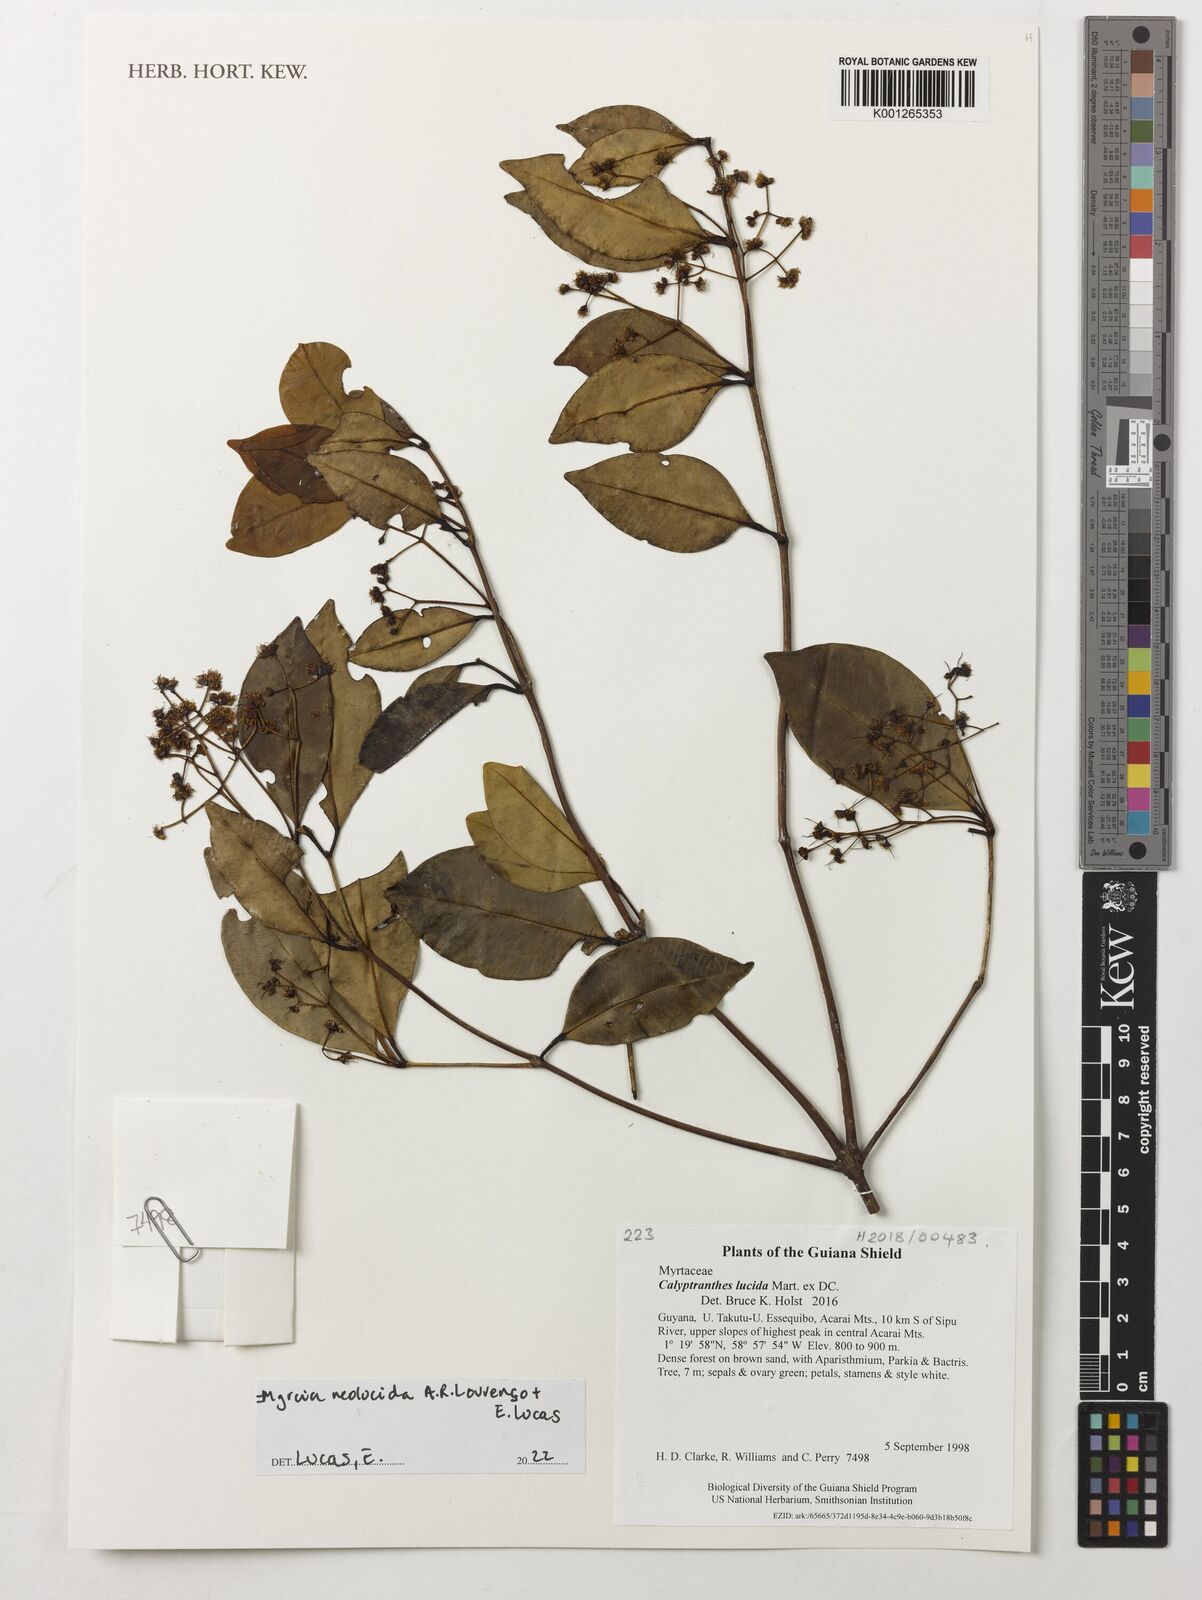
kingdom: Plantae
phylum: Tracheophyta
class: Magnoliopsida
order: Myrtales
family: Myrtaceae
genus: Myrcia
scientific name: Myrcia neolucida
